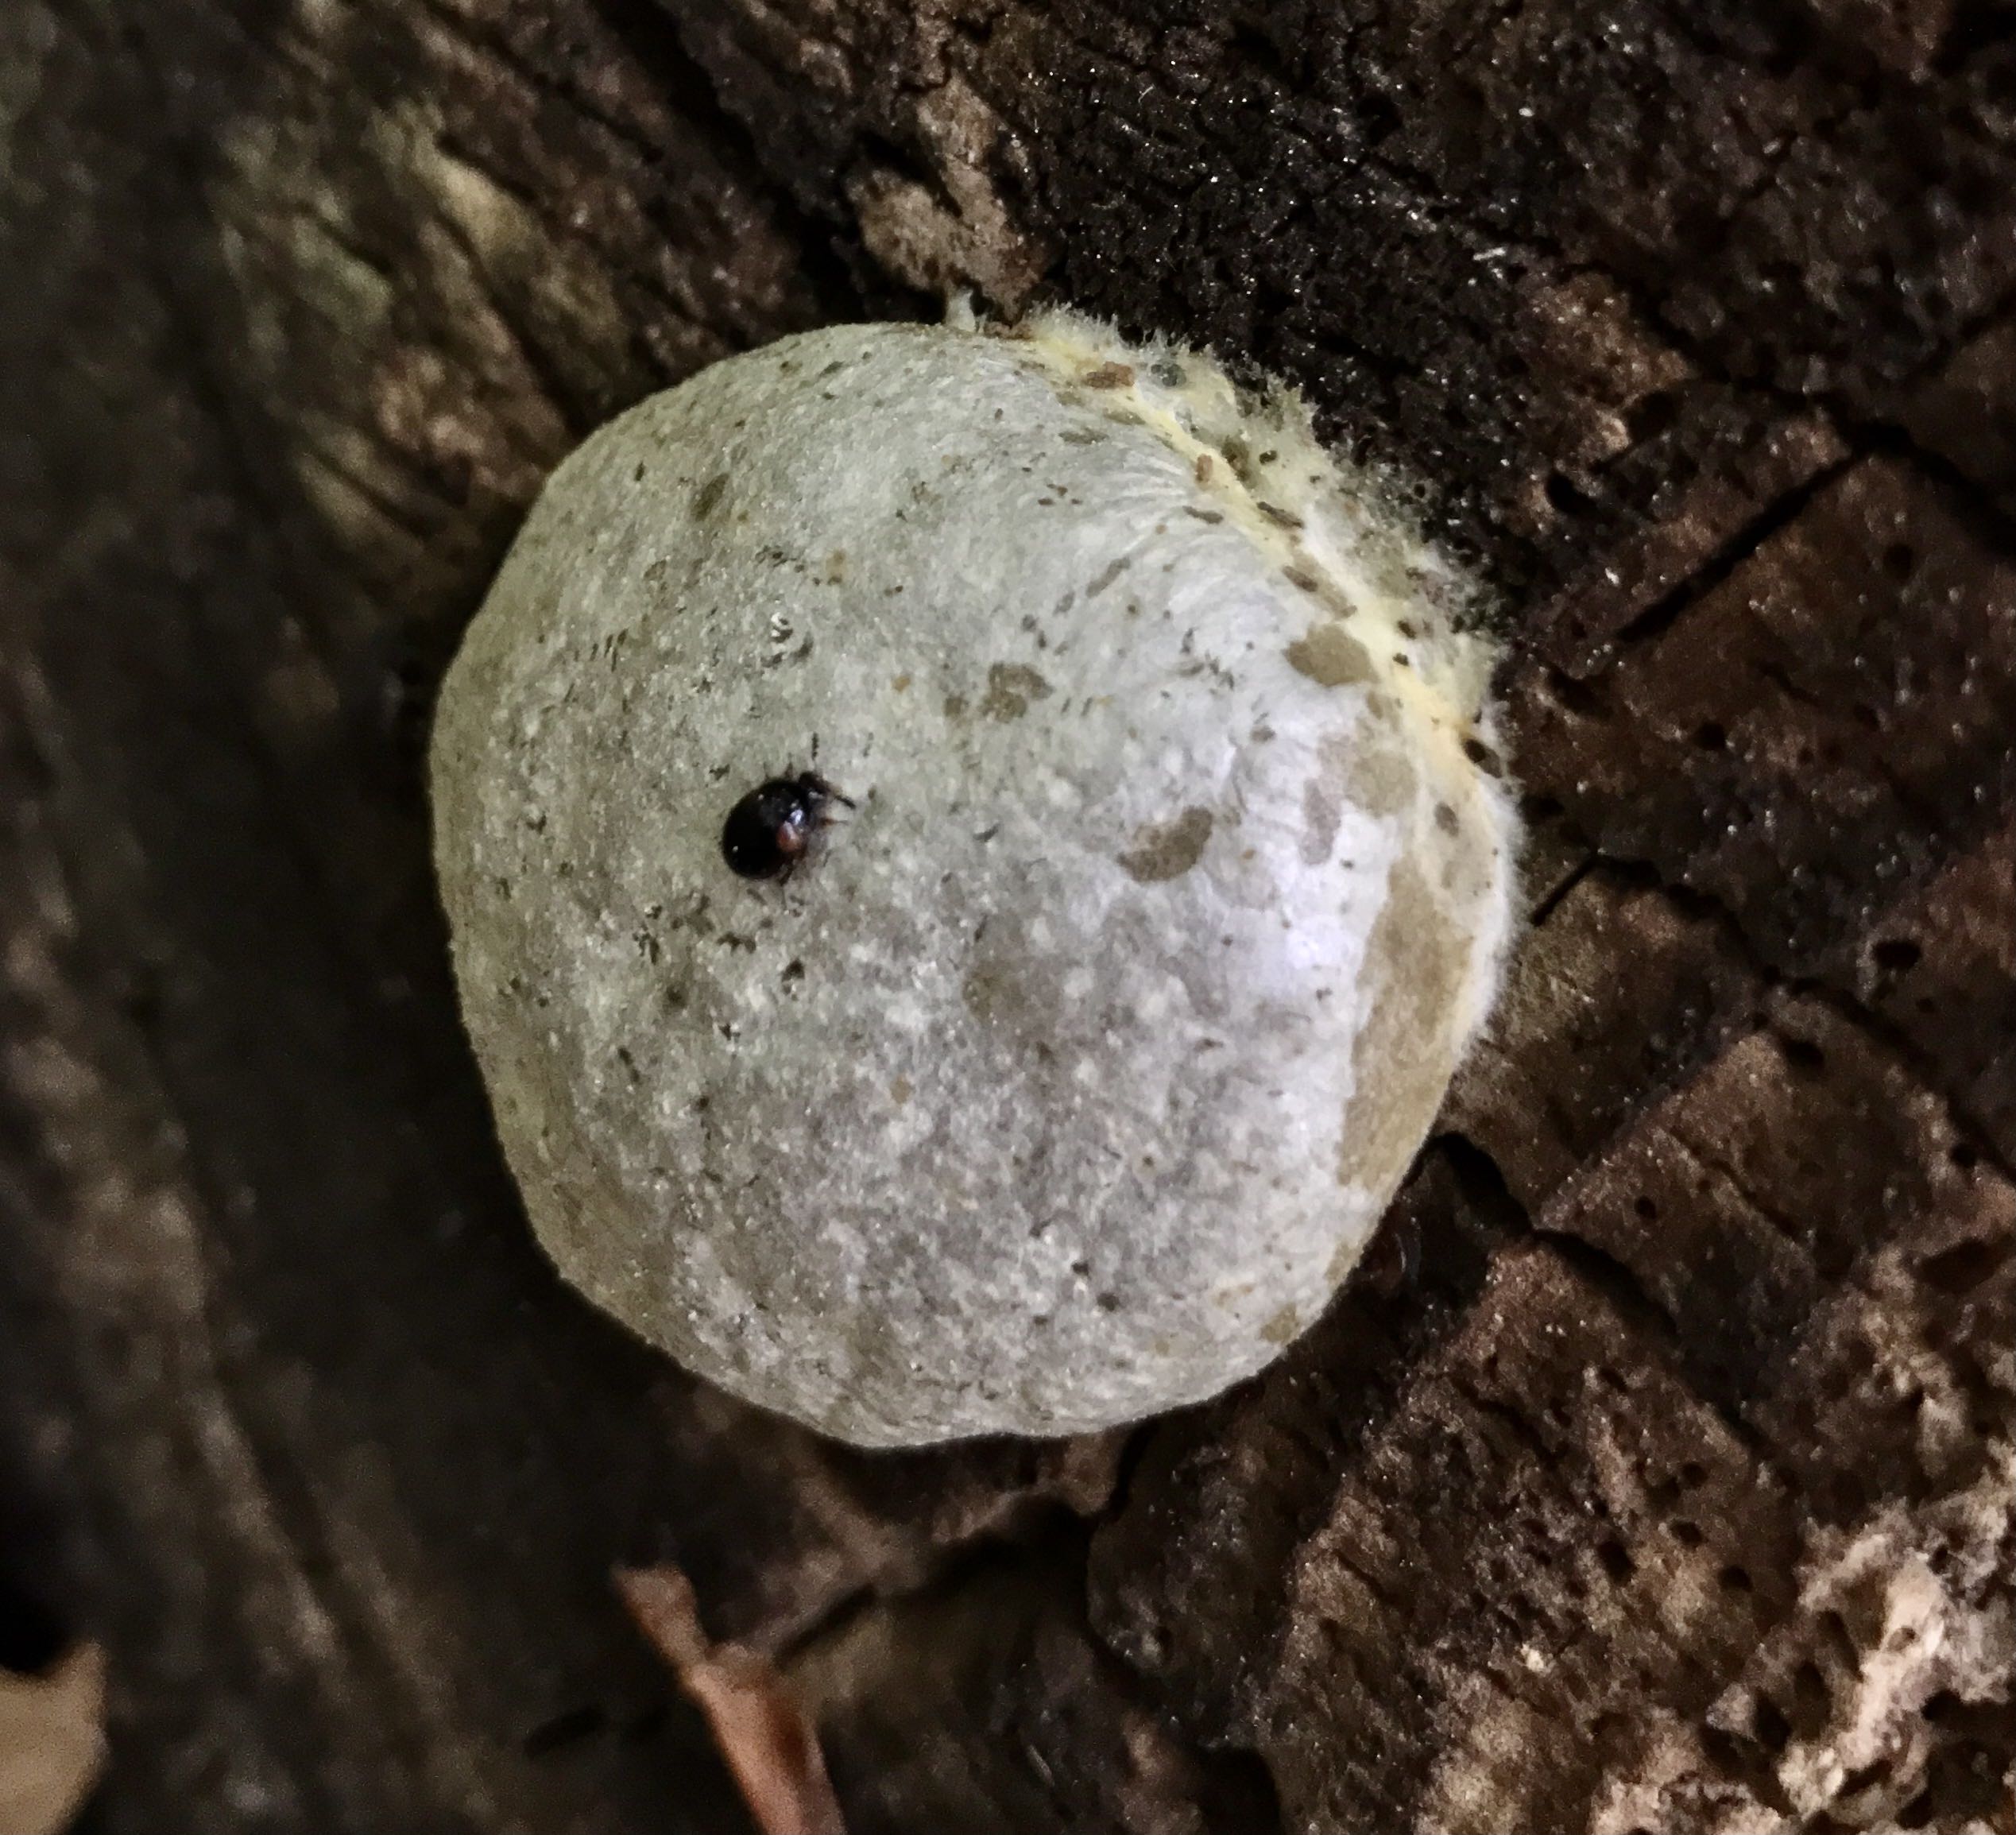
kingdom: Protozoa
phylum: Mycetozoa
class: Myxomycetes
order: Cribrariales
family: Tubiferaceae
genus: Reticularia
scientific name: Reticularia lycoperdon
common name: skinnende støvpude
